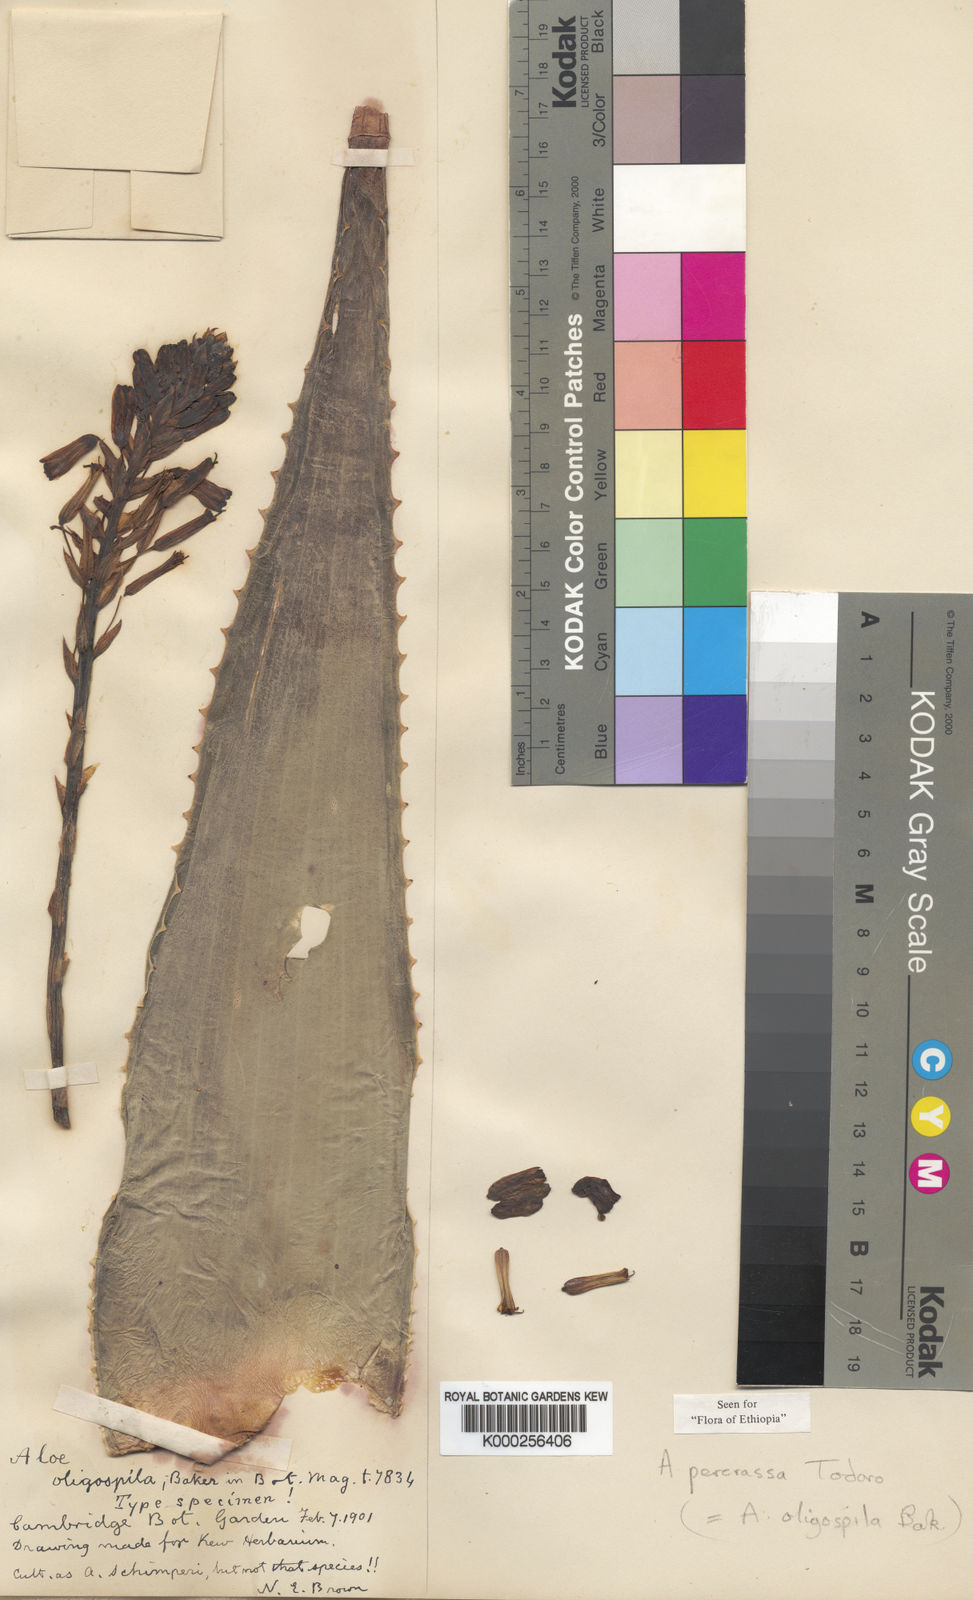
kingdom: Plantae
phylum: Tracheophyta
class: Liliopsida
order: Asparagales
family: Asphodelaceae
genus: Aloe
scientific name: Aloe percrassa
